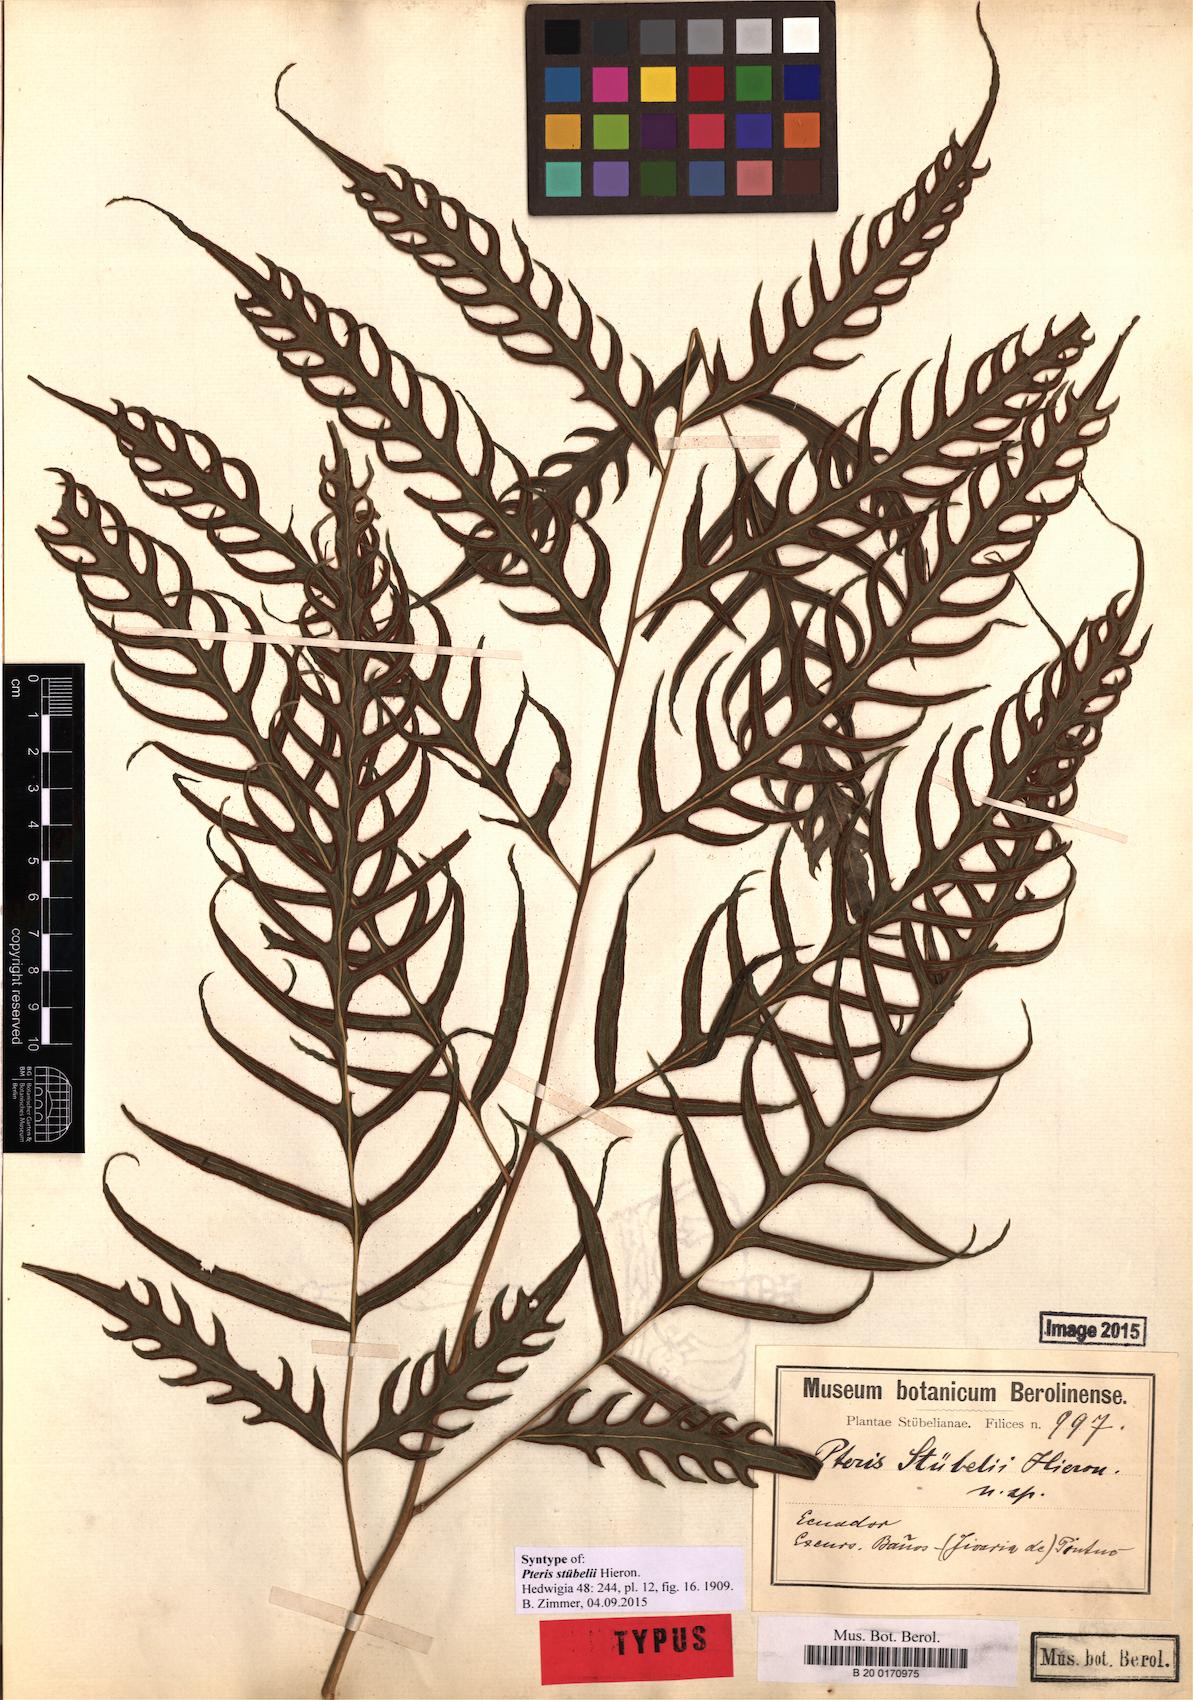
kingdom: Plantae
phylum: Tracheophyta
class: Polypodiopsida
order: Polypodiales
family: Pteridaceae
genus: Pteris
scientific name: Pteris stuebelii
